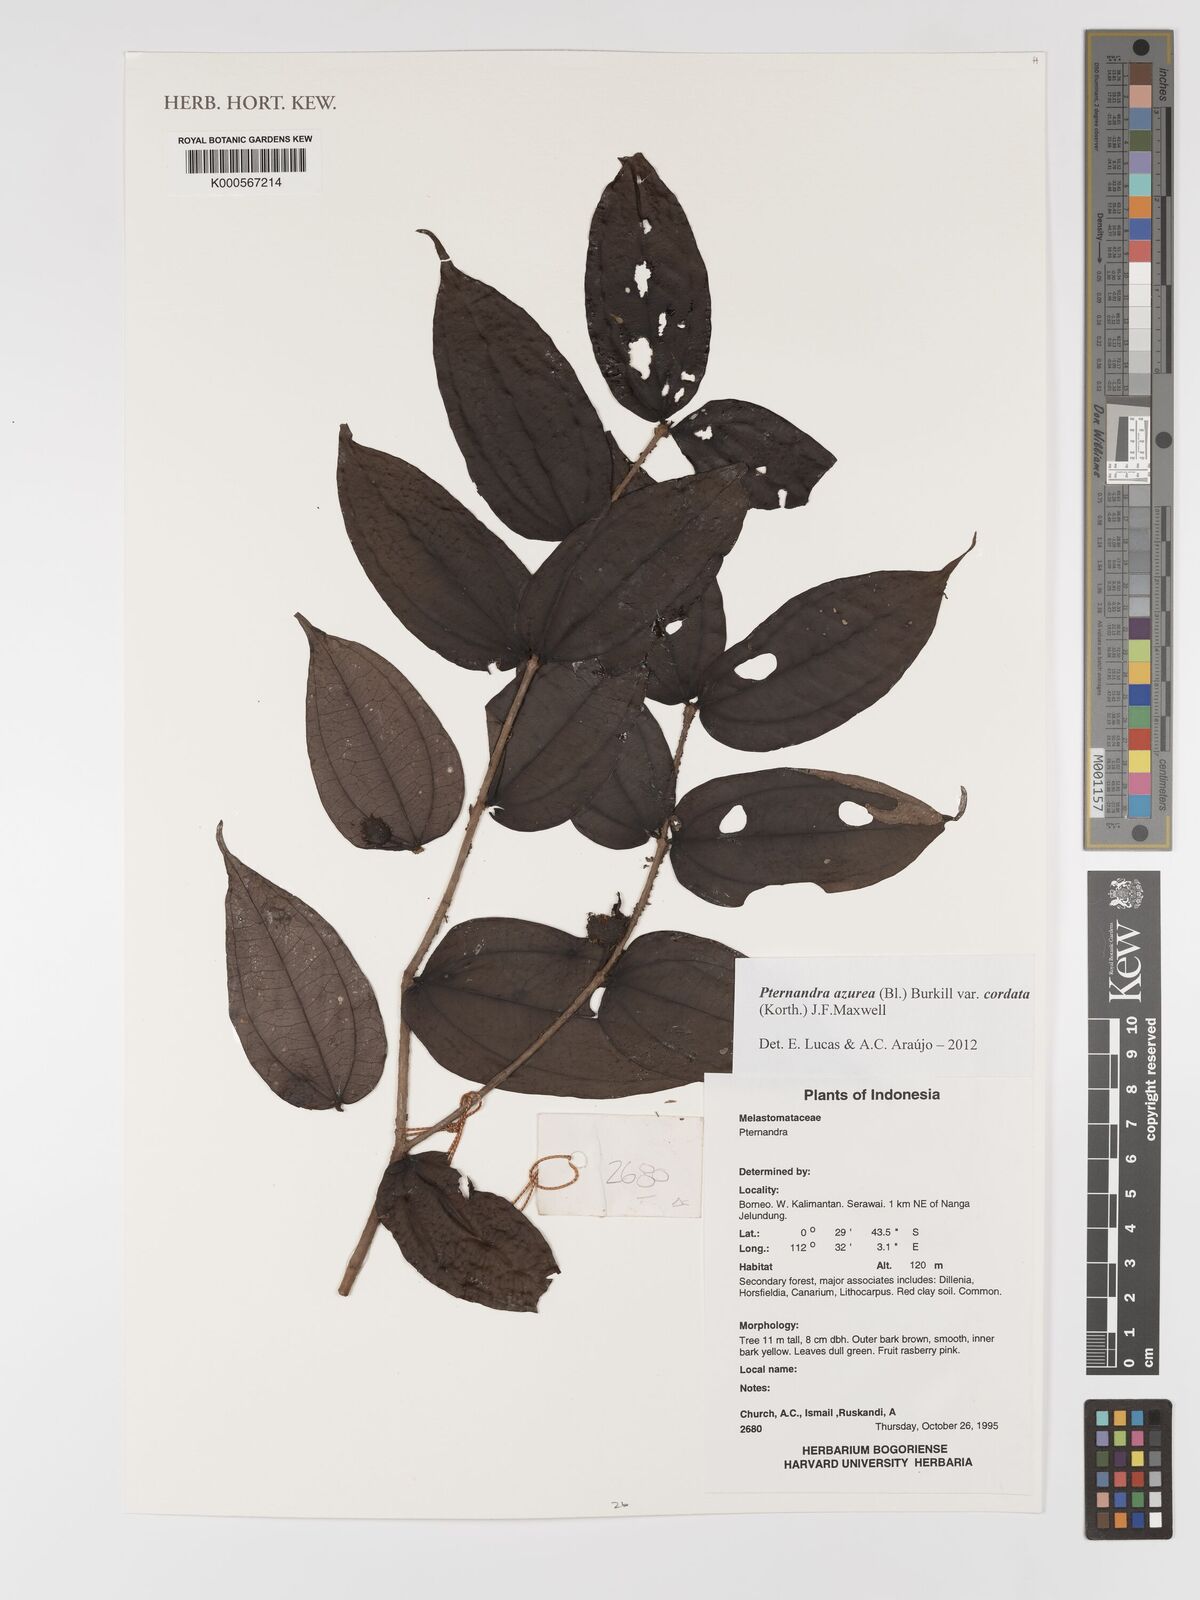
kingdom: Plantae
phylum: Tracheophyta
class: Magnoliopsida
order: Myrtales
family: Melastomataceae
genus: Pternandra
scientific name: Pternandra azurea
